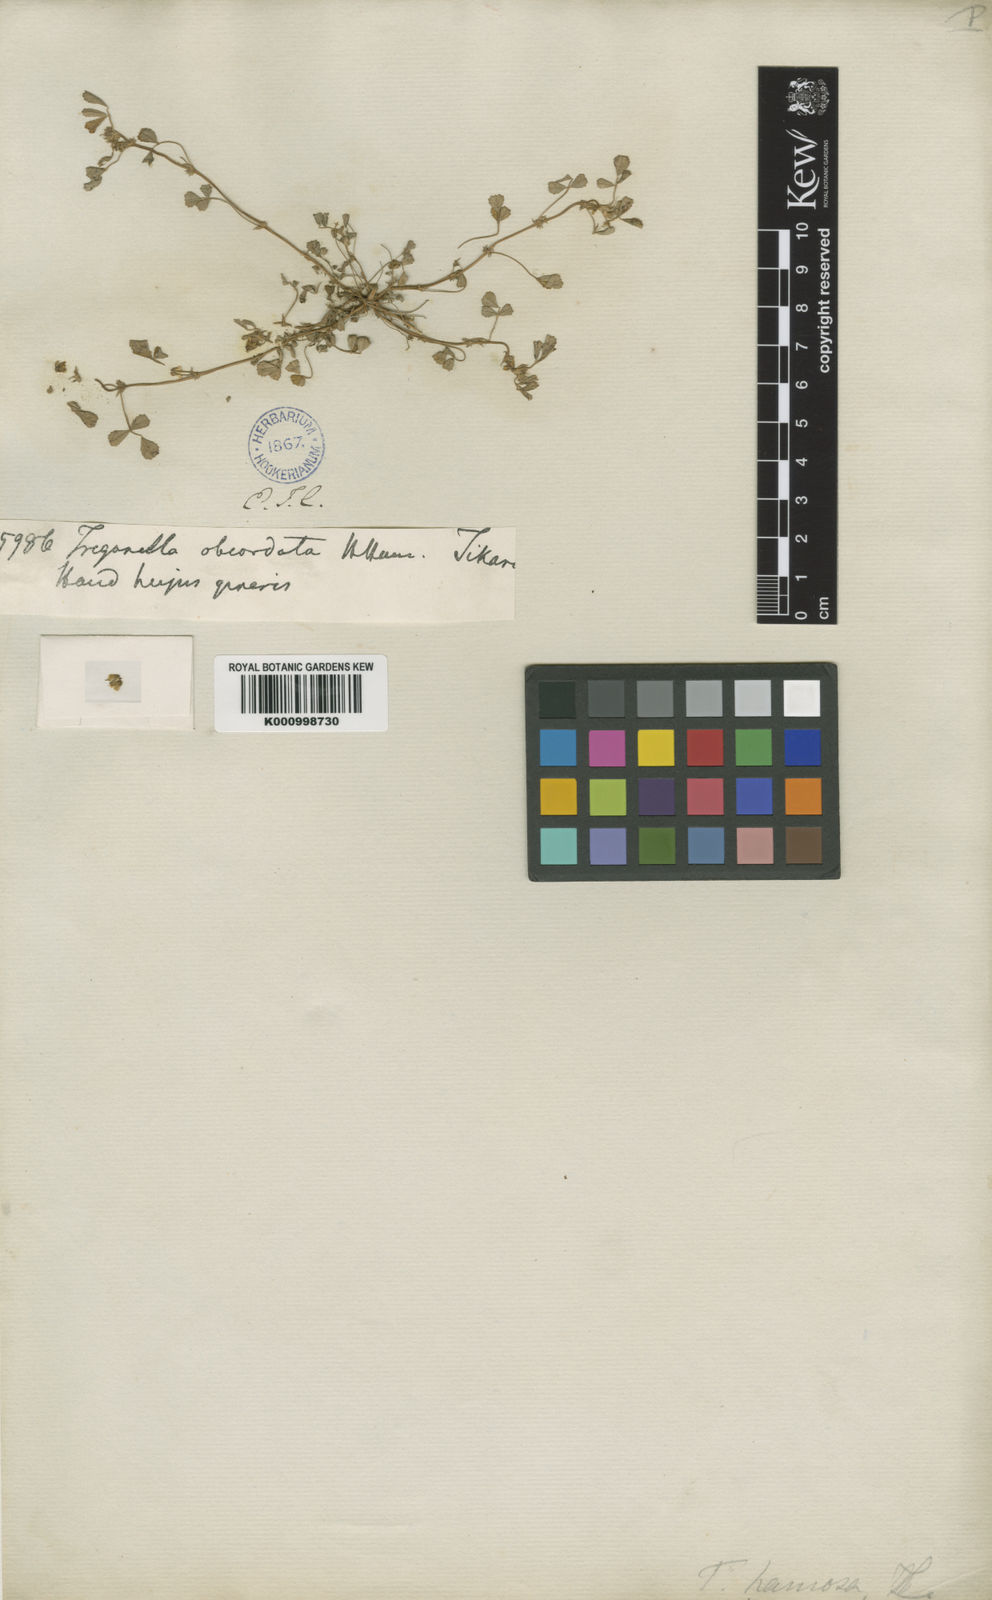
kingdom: Plantae
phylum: Tracheophyta
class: Magnoliopsida
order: Fabales
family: Fabaceae
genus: Trigonella
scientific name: Trigonella glabra
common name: Egyptian fenugreek
